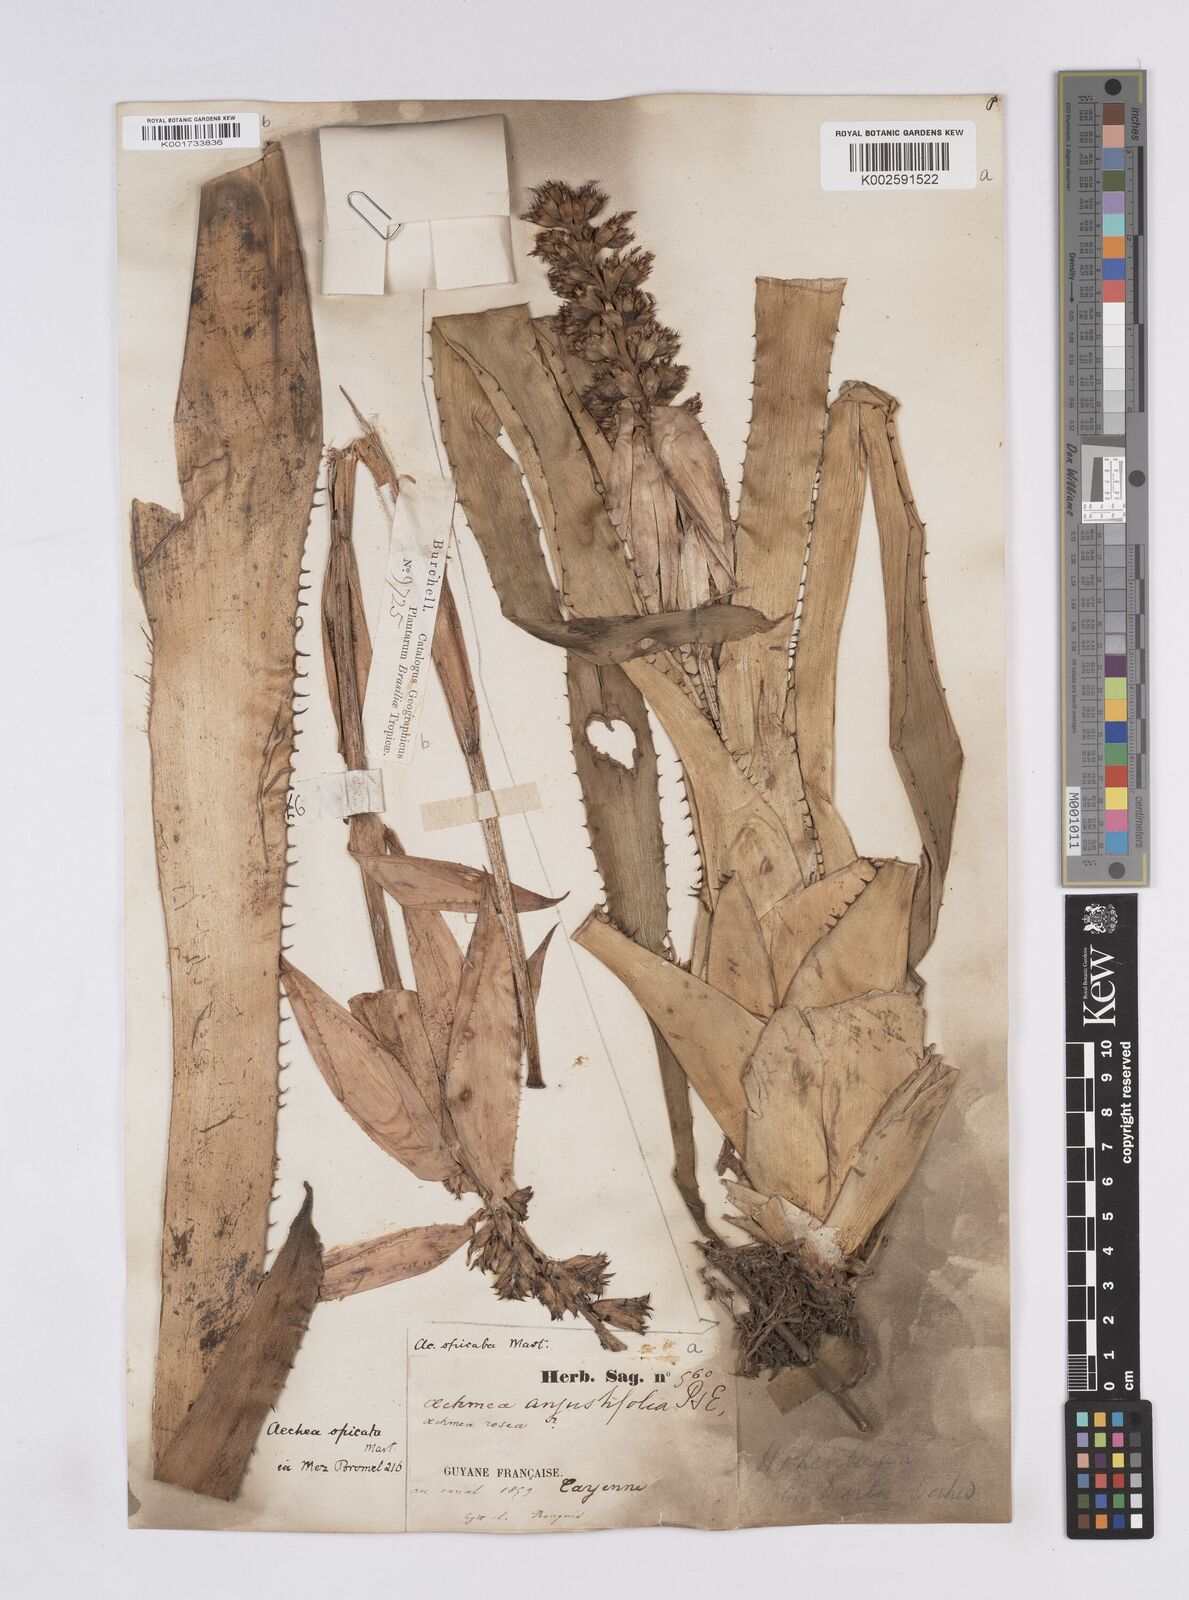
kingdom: Plantae
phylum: Tracheophyta
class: Liliopsida
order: Poales
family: Bromeliaceae
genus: Aechmea
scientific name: Aechmea mertensii
